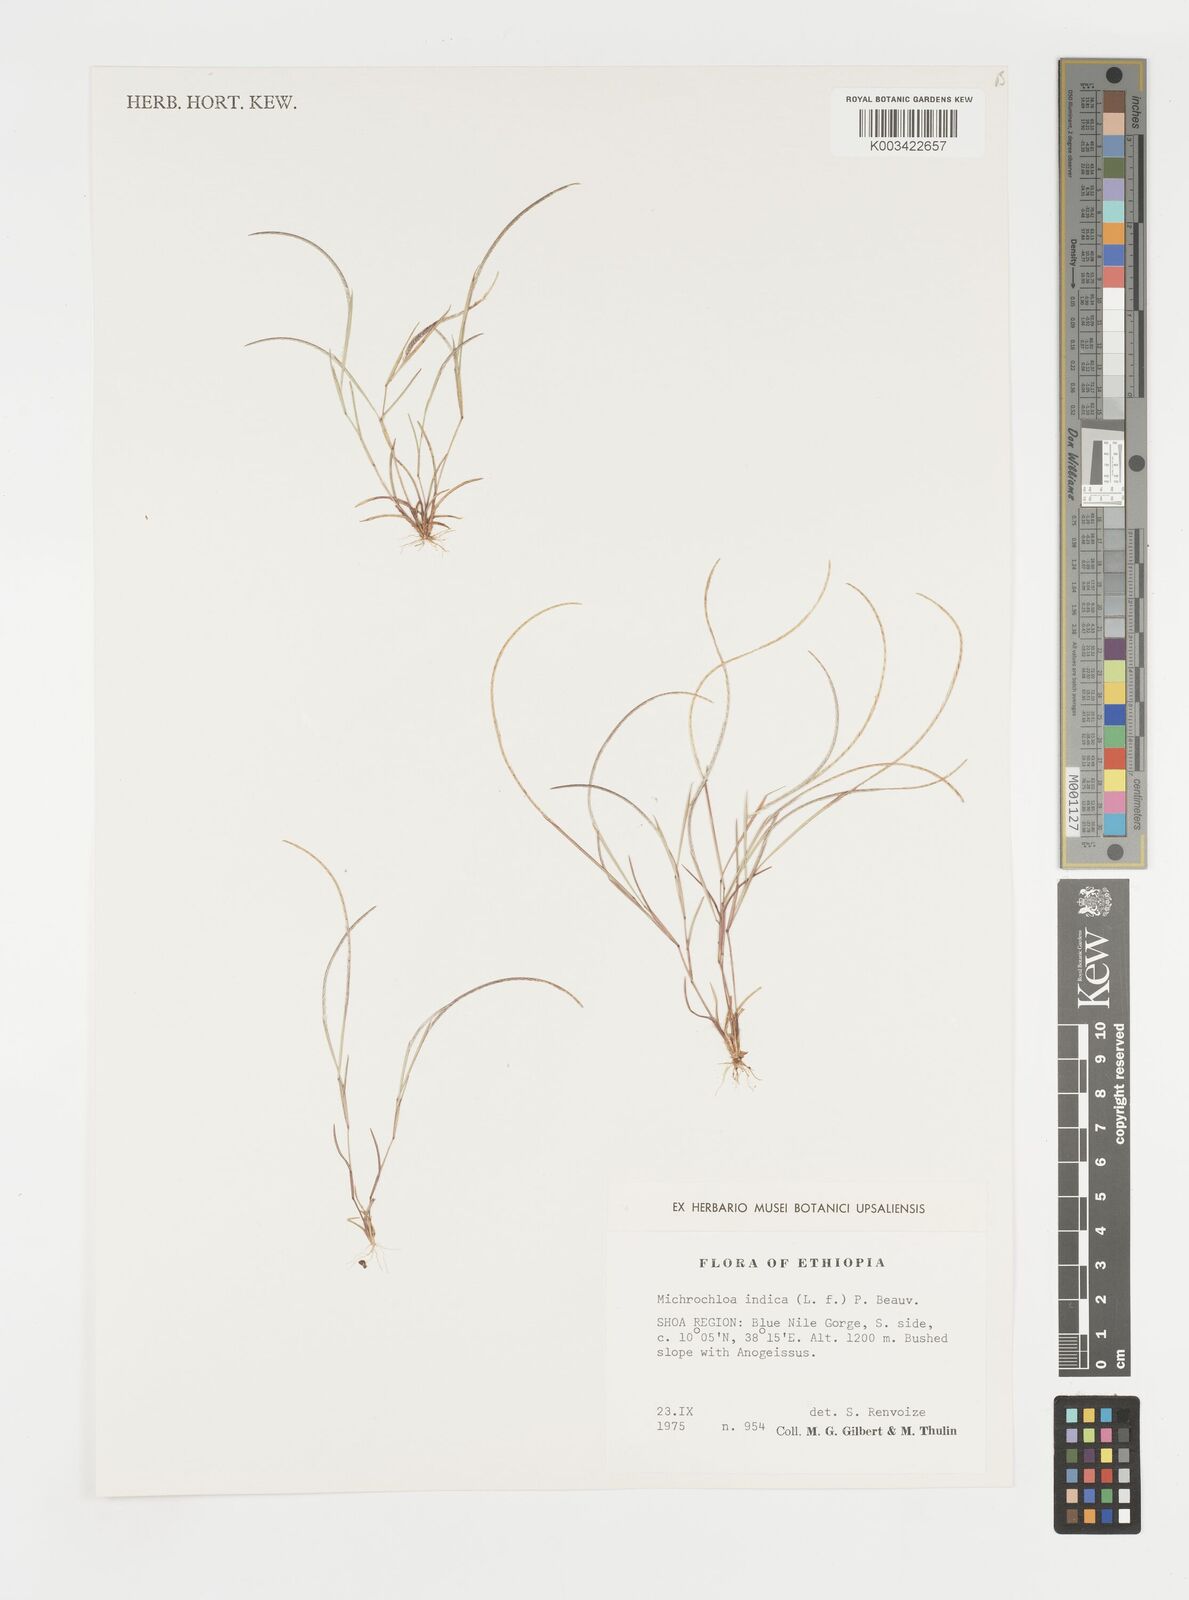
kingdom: Plantae
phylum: Tracheophyta
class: Liliopsida
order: Poales
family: Poaceae
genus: Microchloa
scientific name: Microchloa indica
